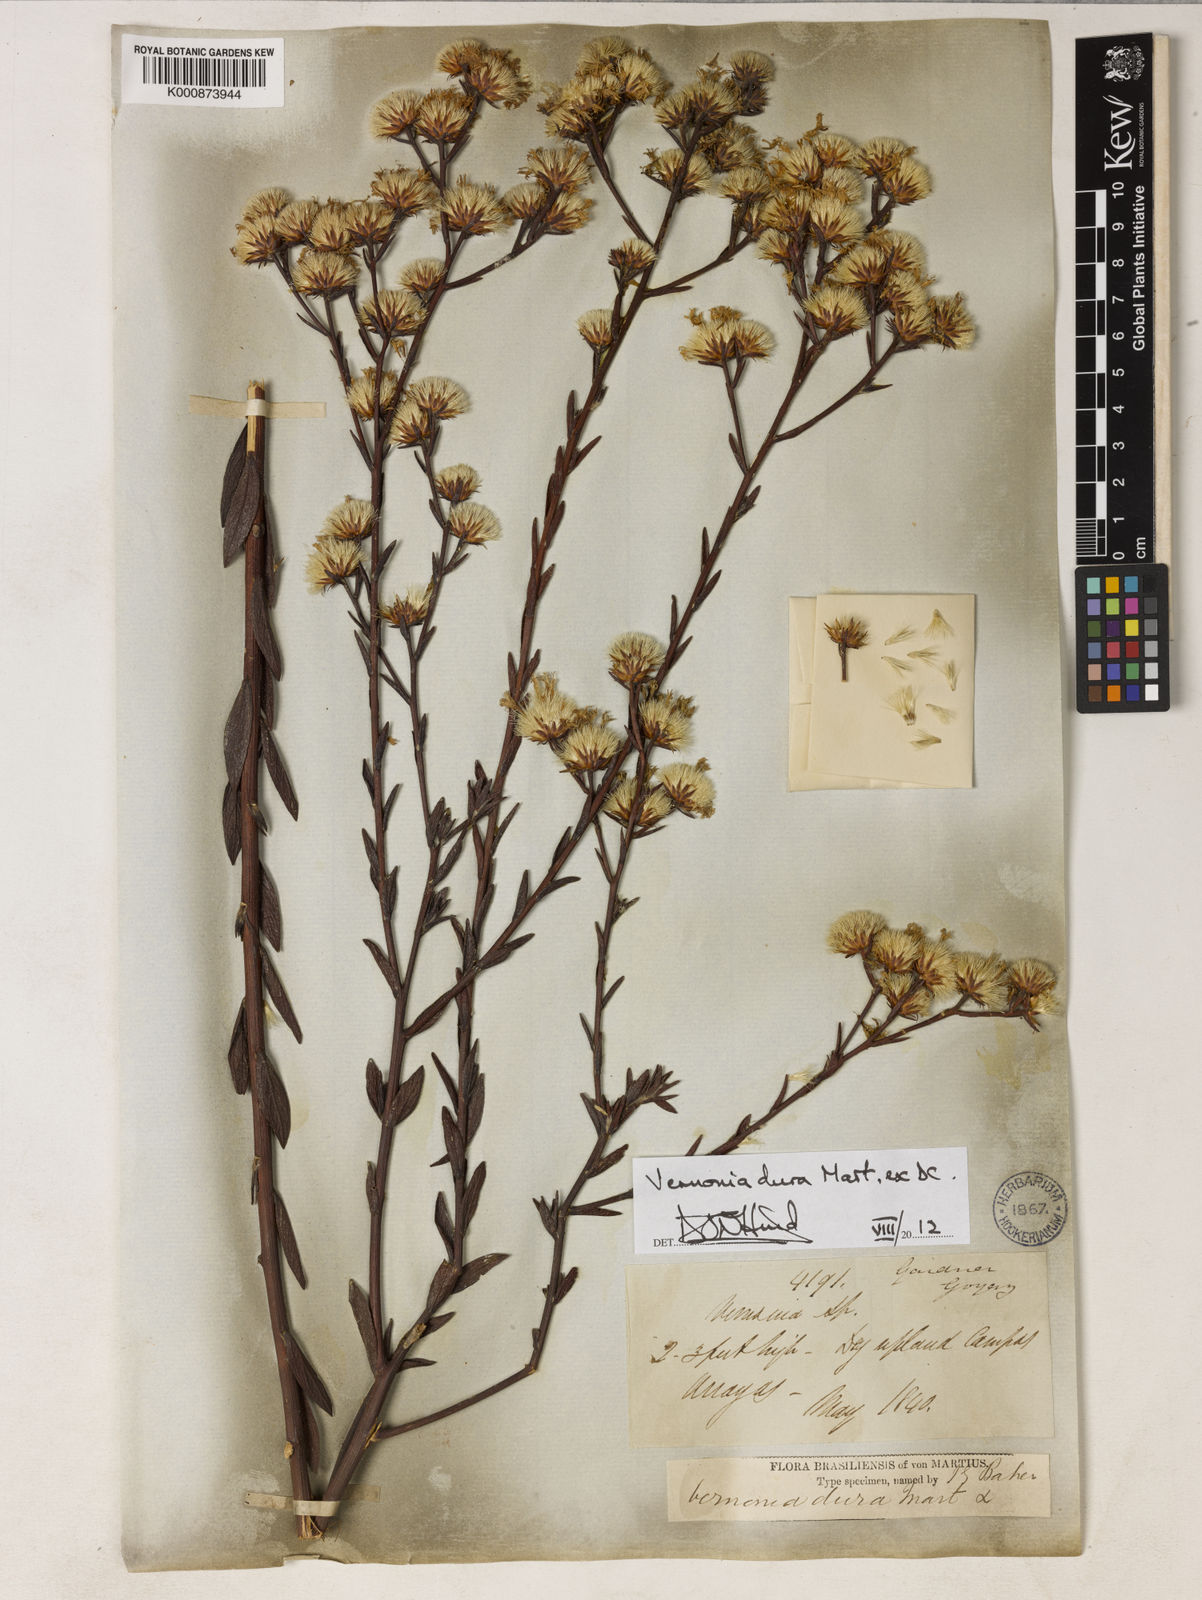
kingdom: Plantae
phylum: Tracheophyta
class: Magnoliopsida
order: Asterales
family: Asteraceae
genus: Lessingianthus
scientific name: Lessingianthus durus
